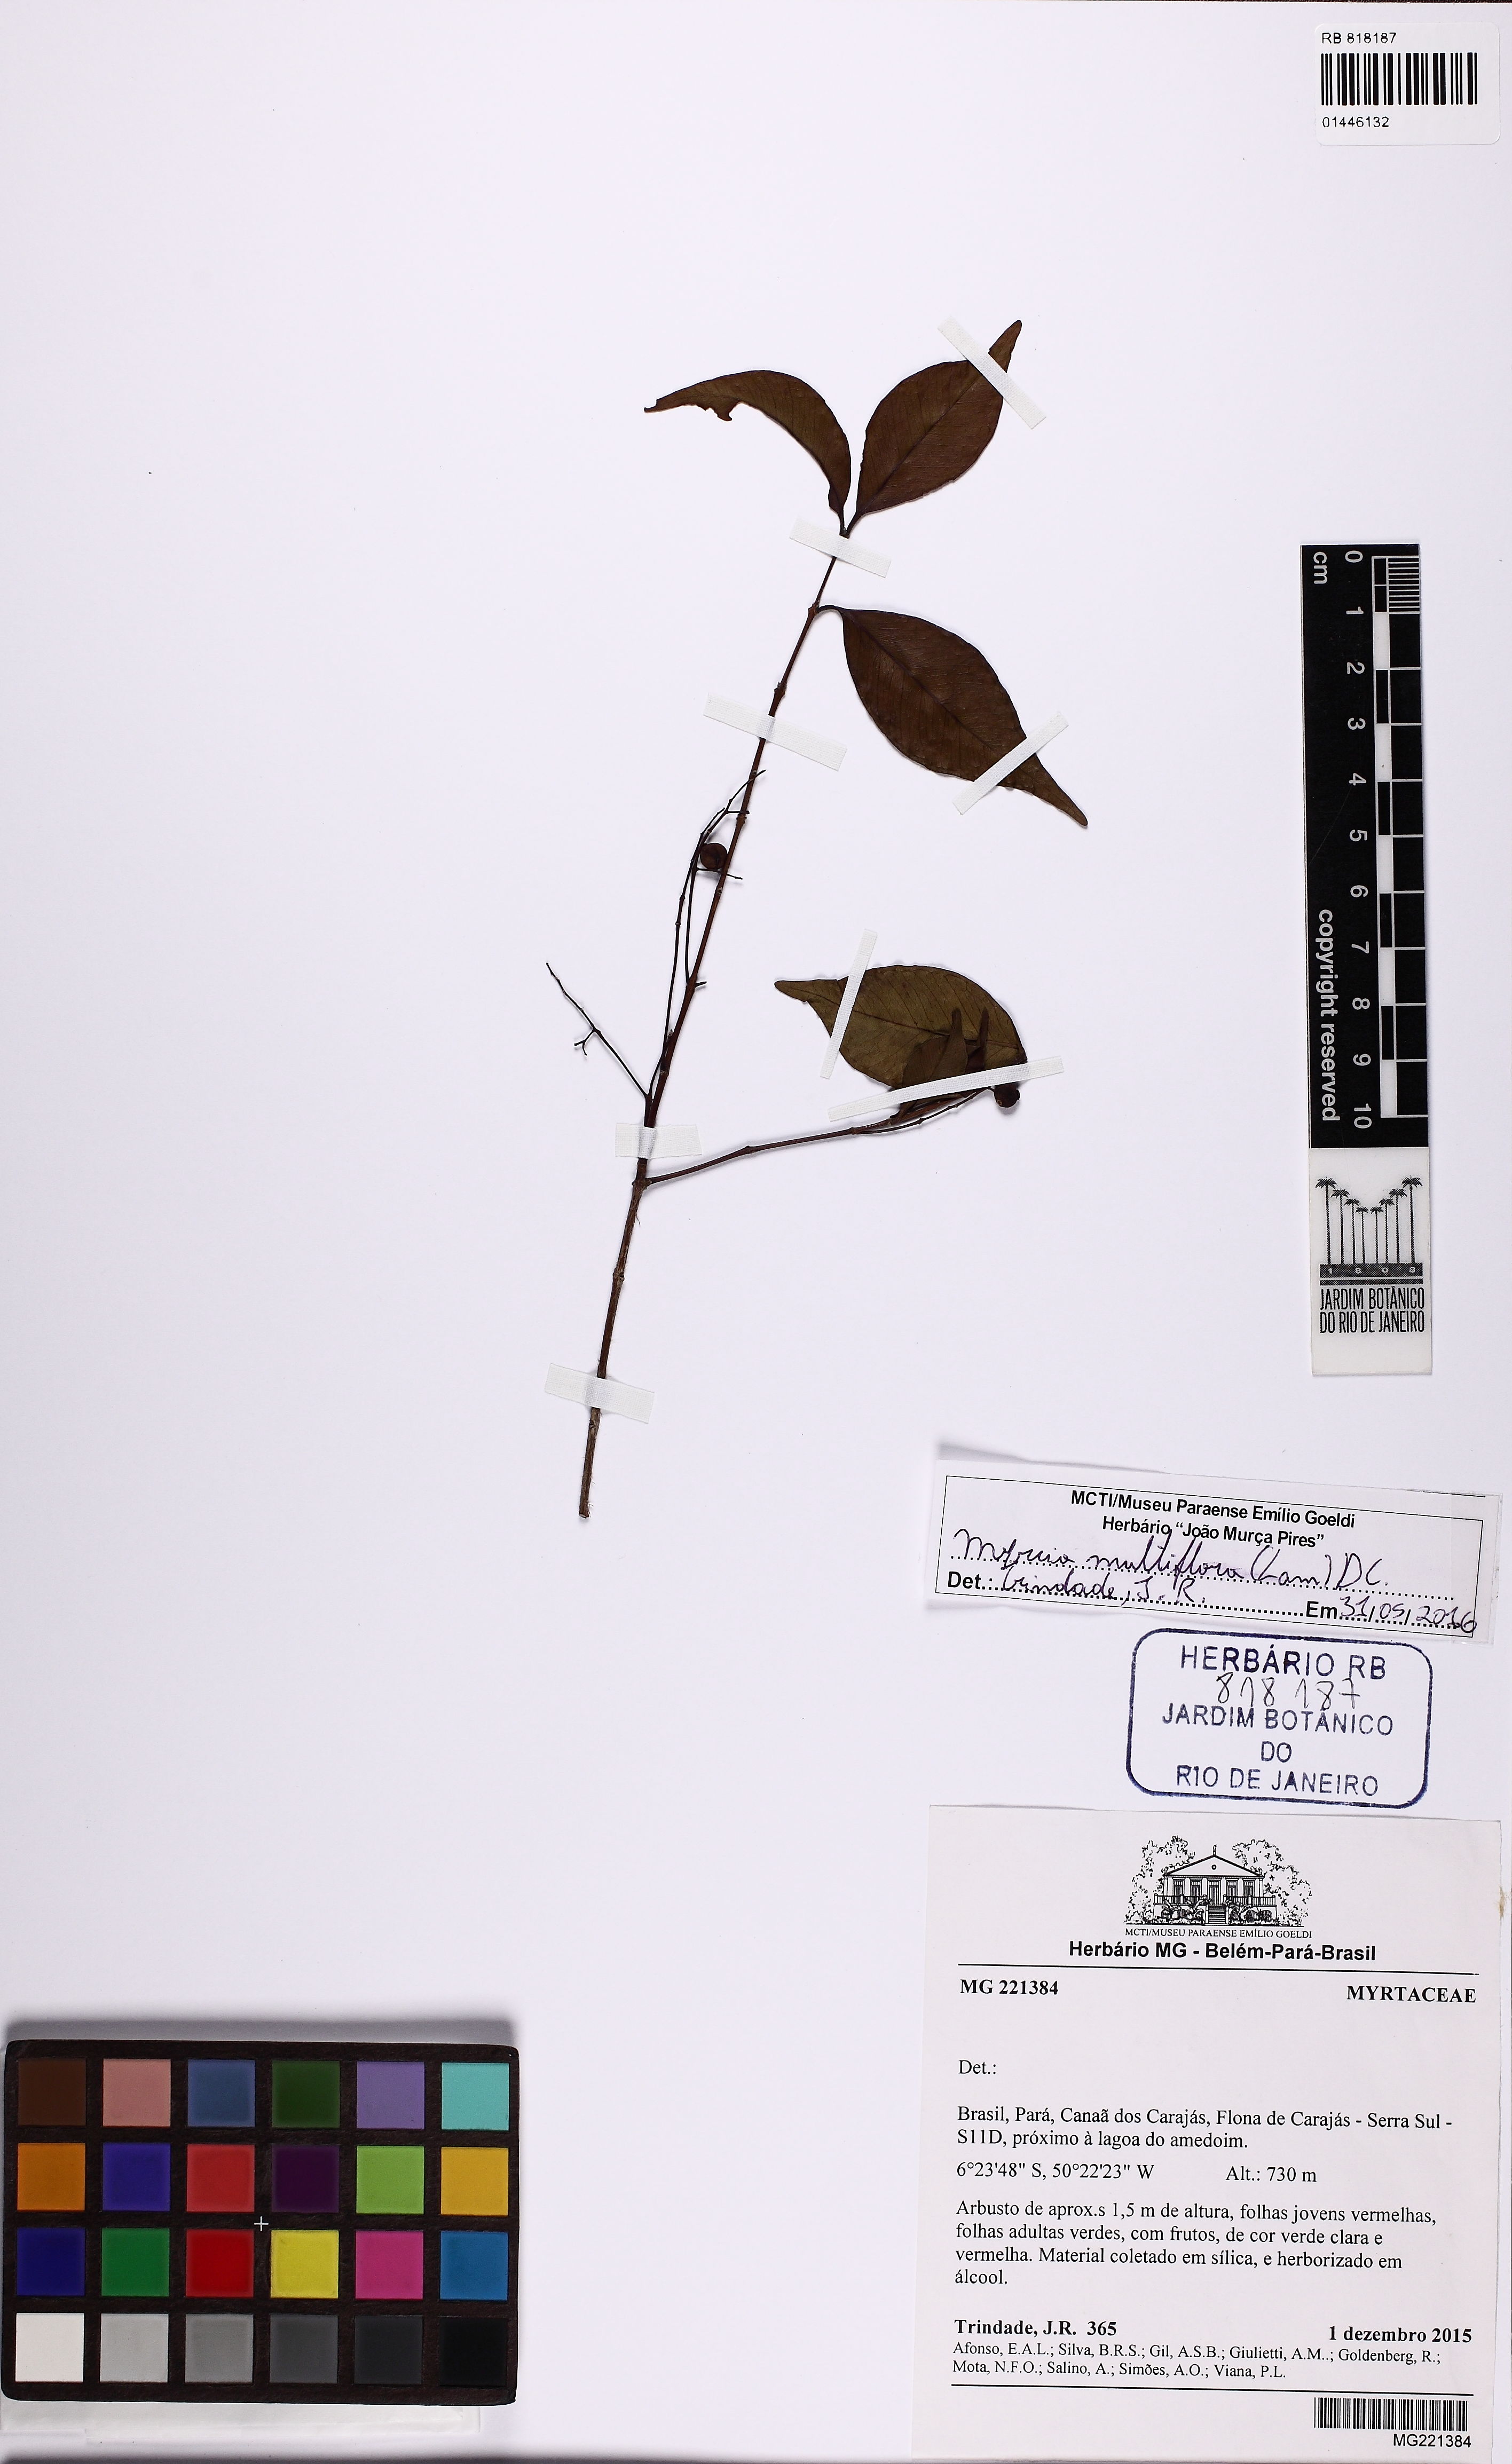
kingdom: Plantae
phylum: Tracheophyta
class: Magnoliopsida
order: Myrtales
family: Myrtaceae
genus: Myrcia
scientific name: Myrcia multiflora
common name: Pedra hume
